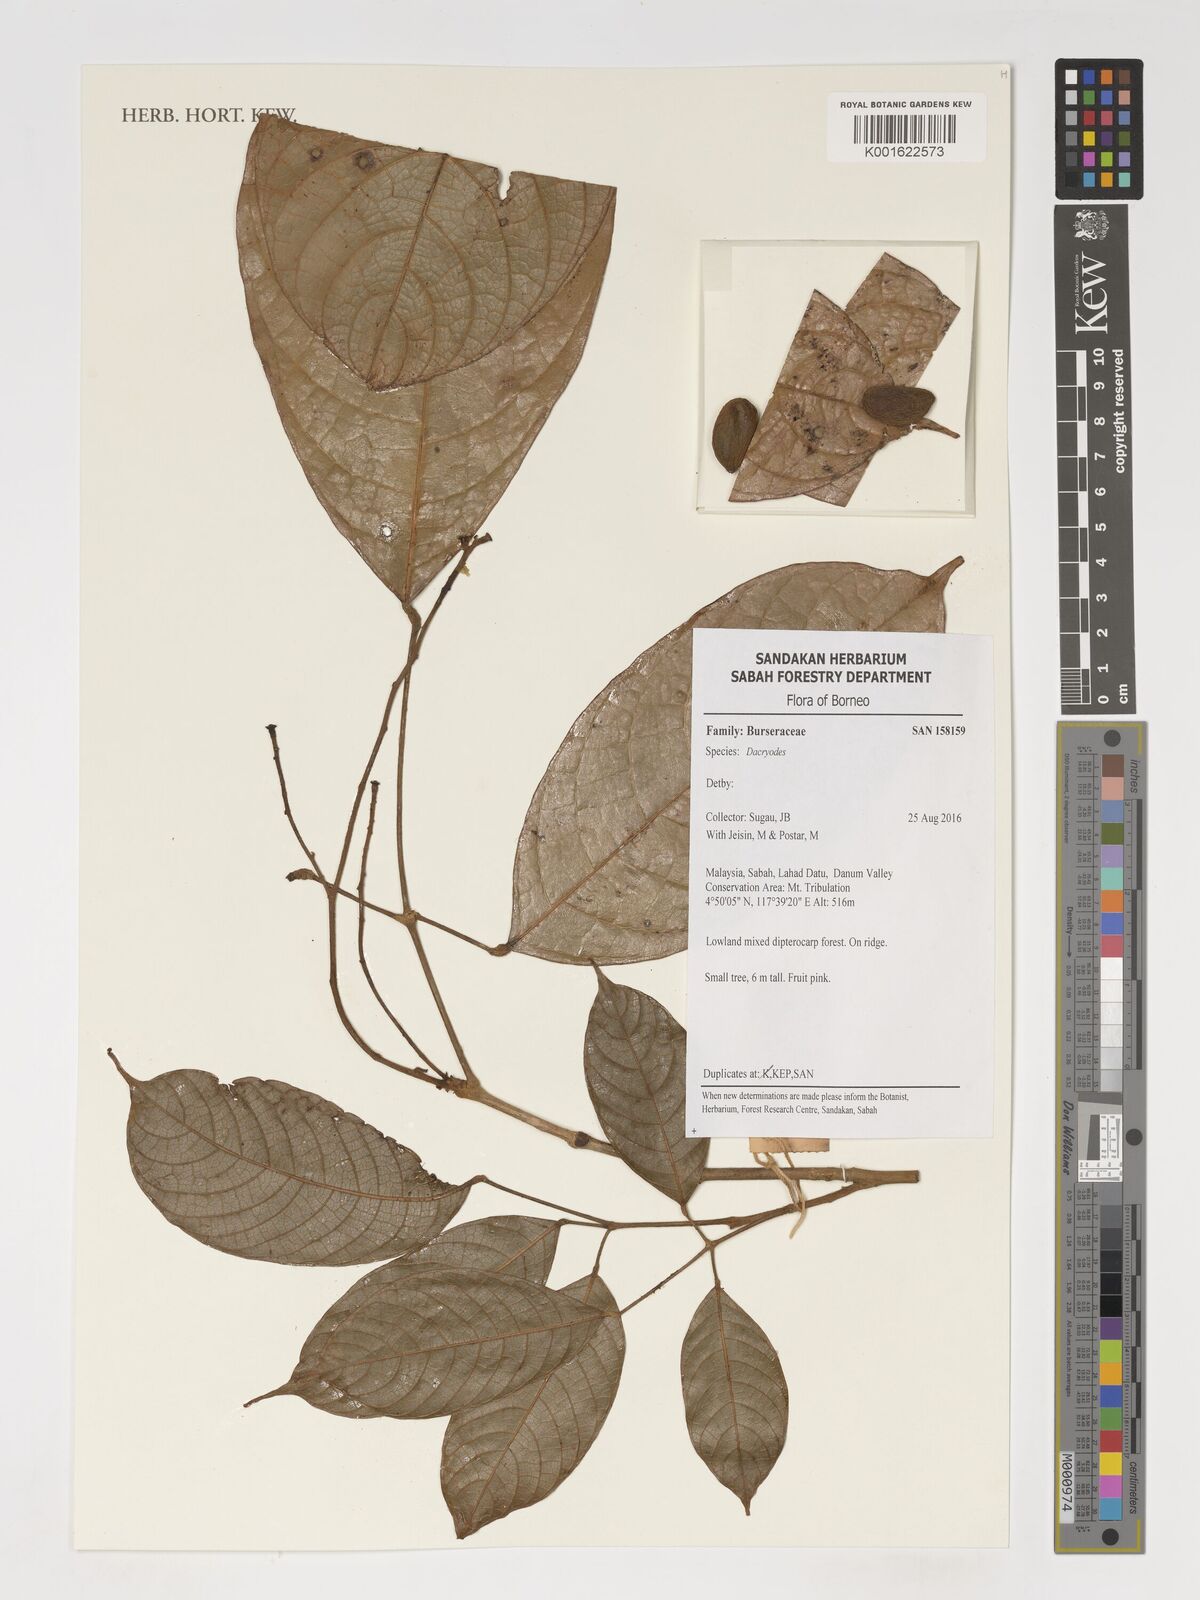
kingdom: Plantae
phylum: Tracheophyta
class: Magnoliopsida
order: Sapindales
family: Burseraceae
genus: Dacryodes
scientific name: Dacryodes
